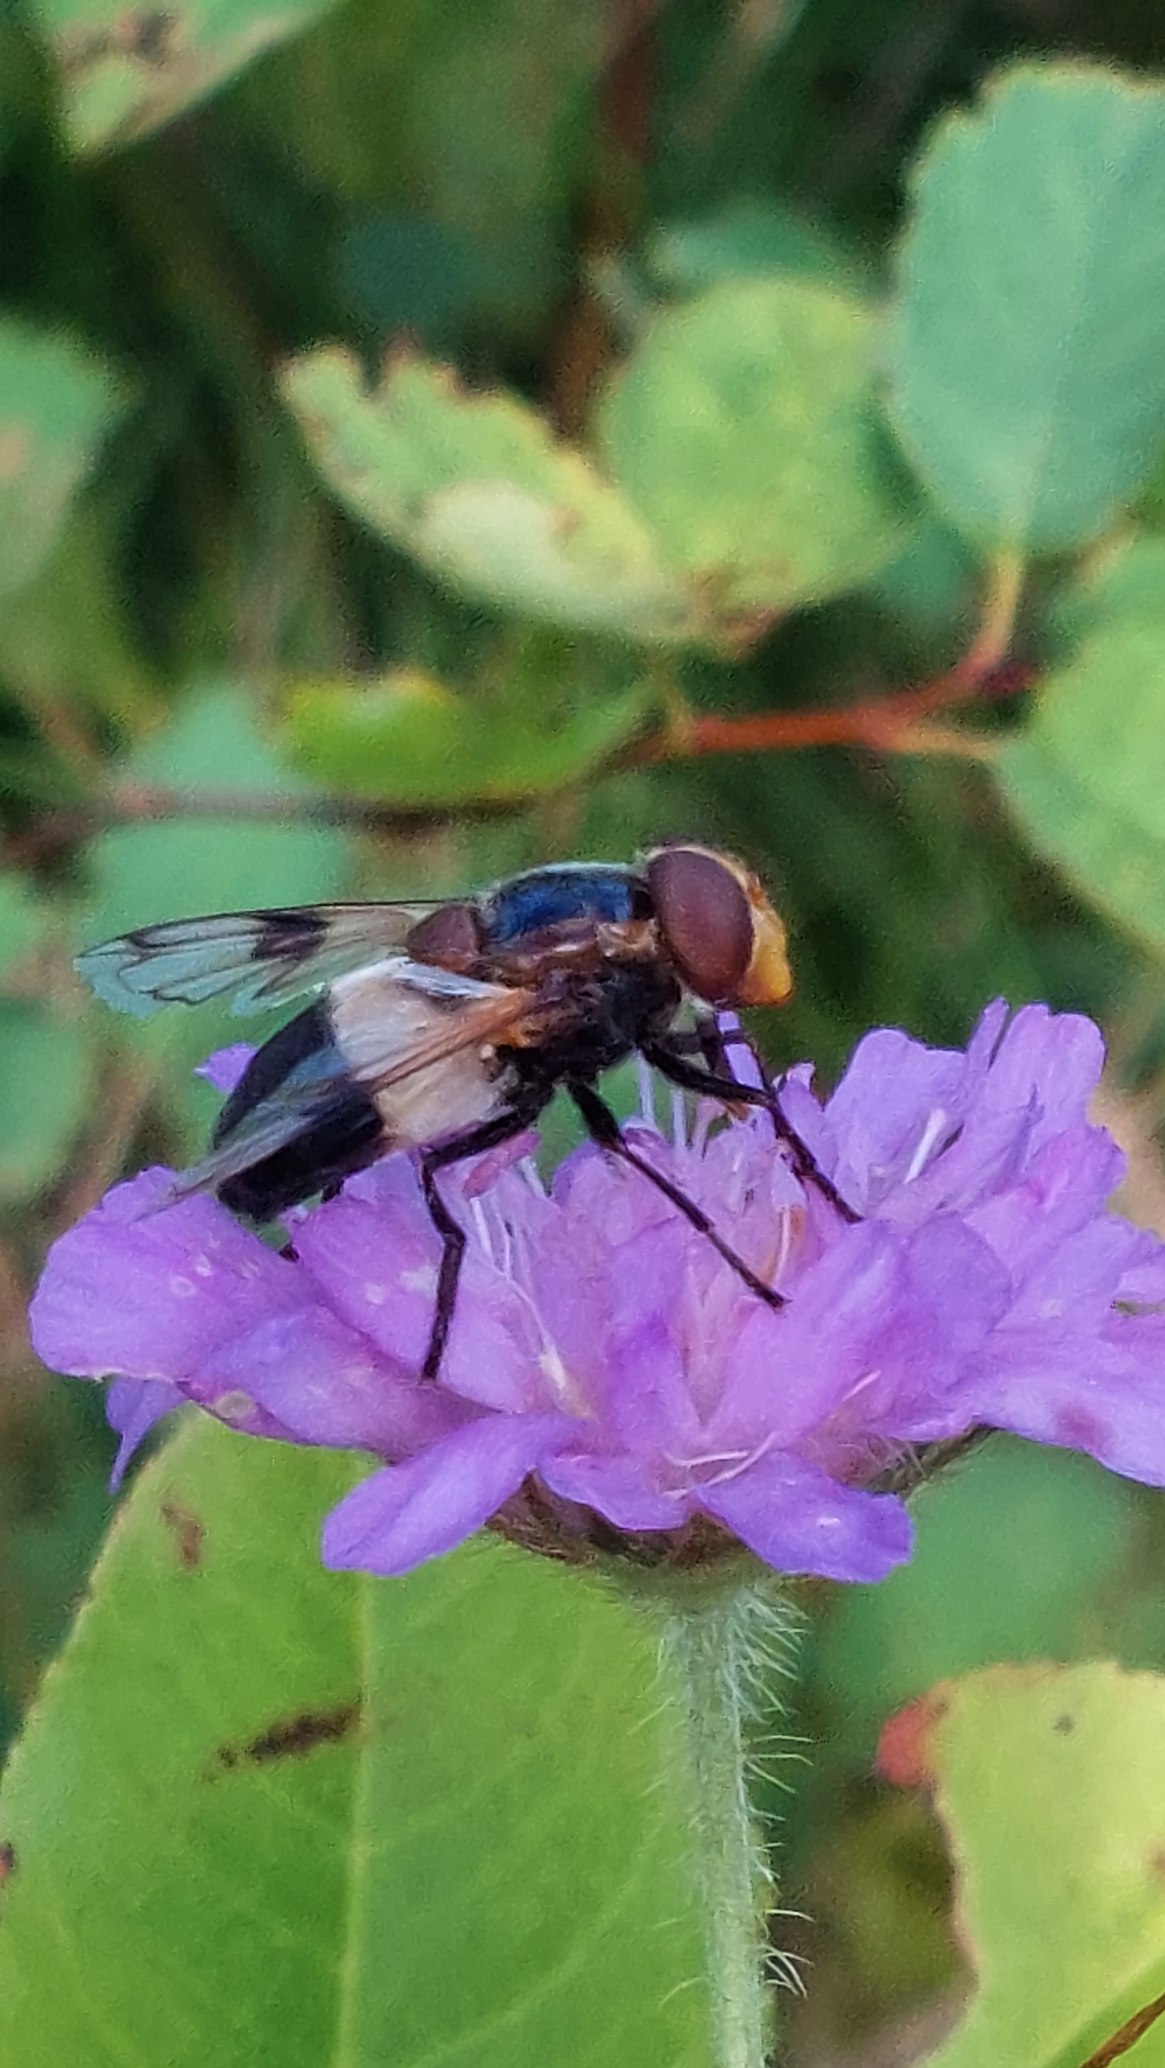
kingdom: Animalia
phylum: Arthropoda
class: Insecta
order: Diptera
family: Syrphidae
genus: Volucella
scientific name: Volucella pellucens
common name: Hvidbåndet humlesvirreflue
